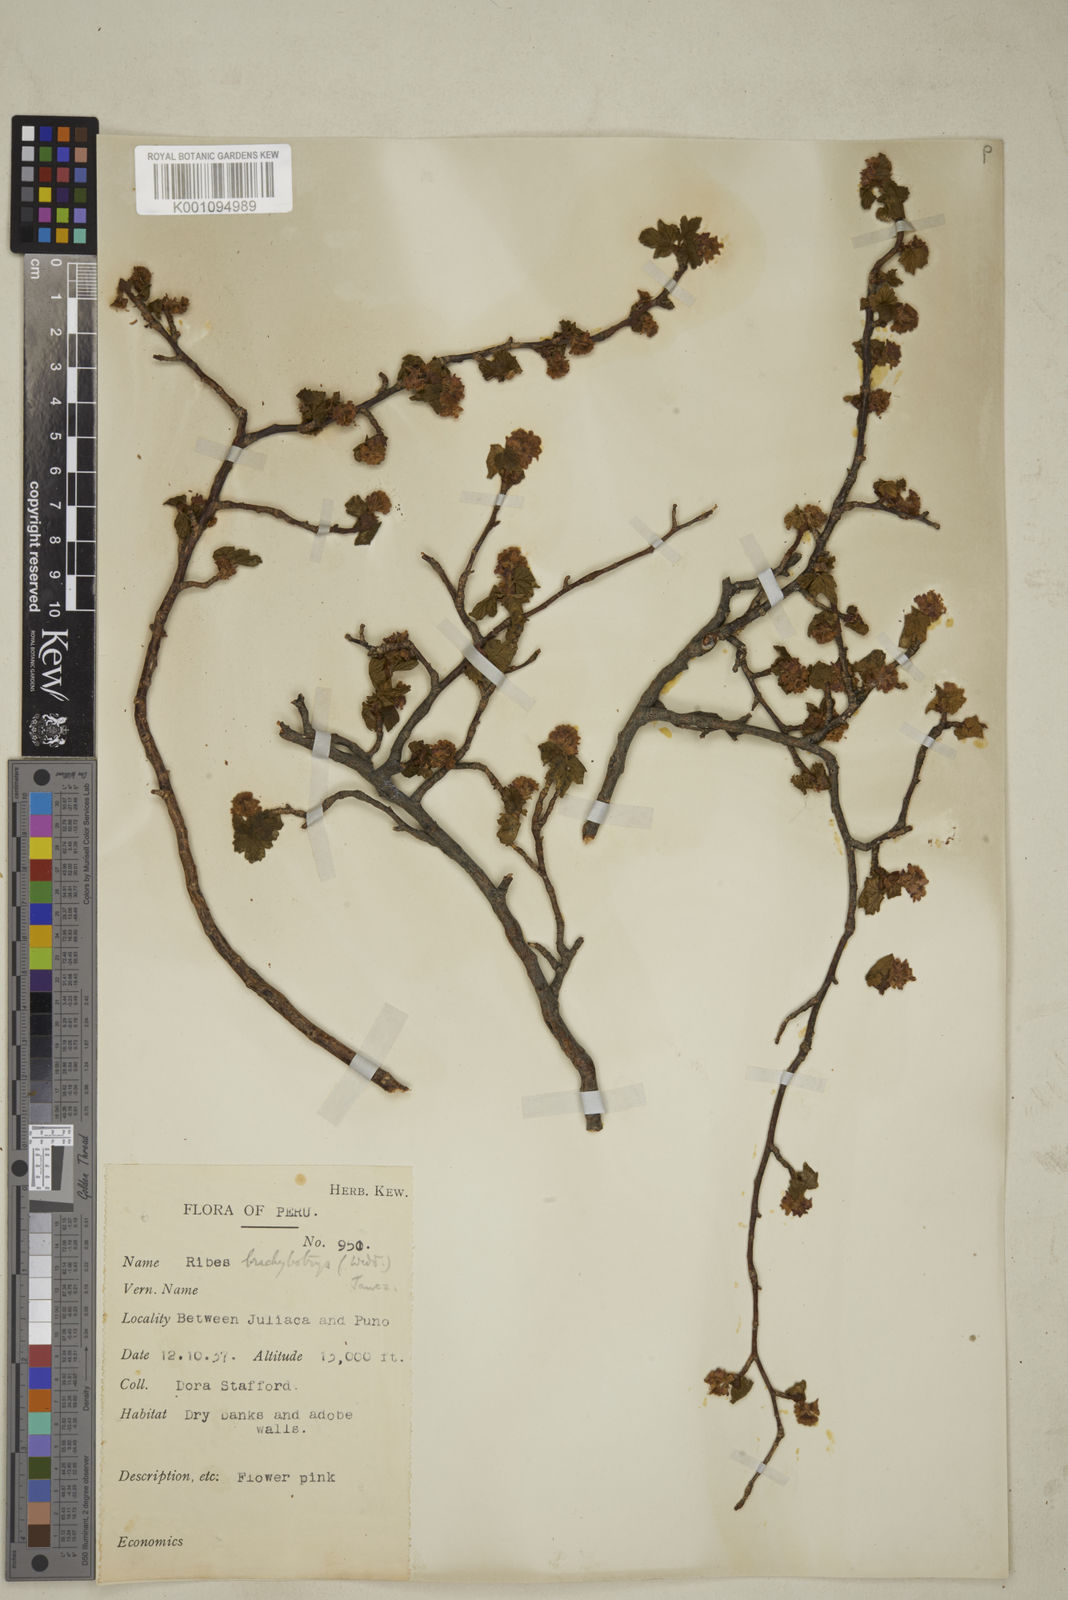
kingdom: Plantae
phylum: Tracheophyta
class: Magnoliopsida
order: Saxifragales
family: Grossulariaceae
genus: Ribes
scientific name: Ribes brachybotrys
